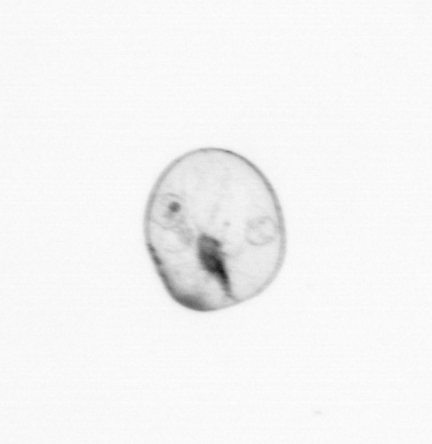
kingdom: Chromista
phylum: Myzozoa
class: Dinophyceae
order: Noctilucales
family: Noctilucaceae
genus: Noctiluca
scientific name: Noctiluca scintillans
